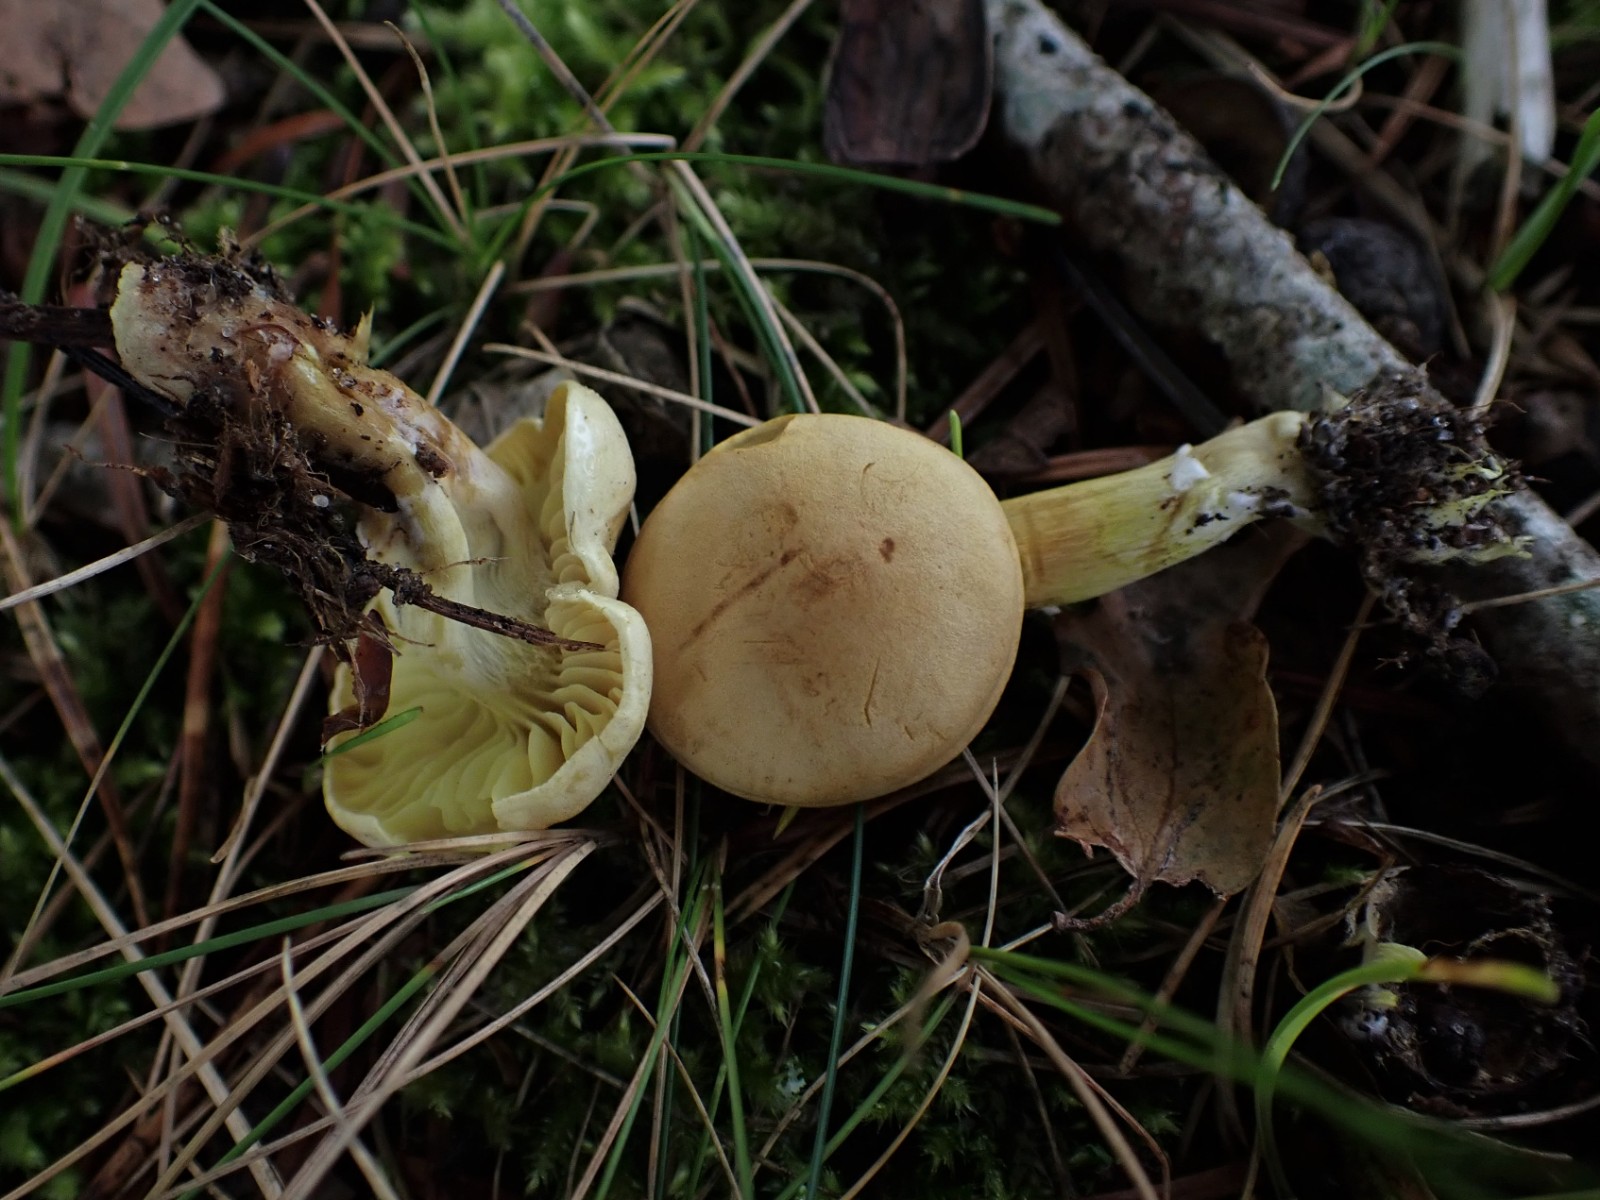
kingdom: Fungi
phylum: Basidiomycota
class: Agaricomycetes
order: Agaricales
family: Tricholomataceae
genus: Tricholoma
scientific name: Tricholoma sulphureum
